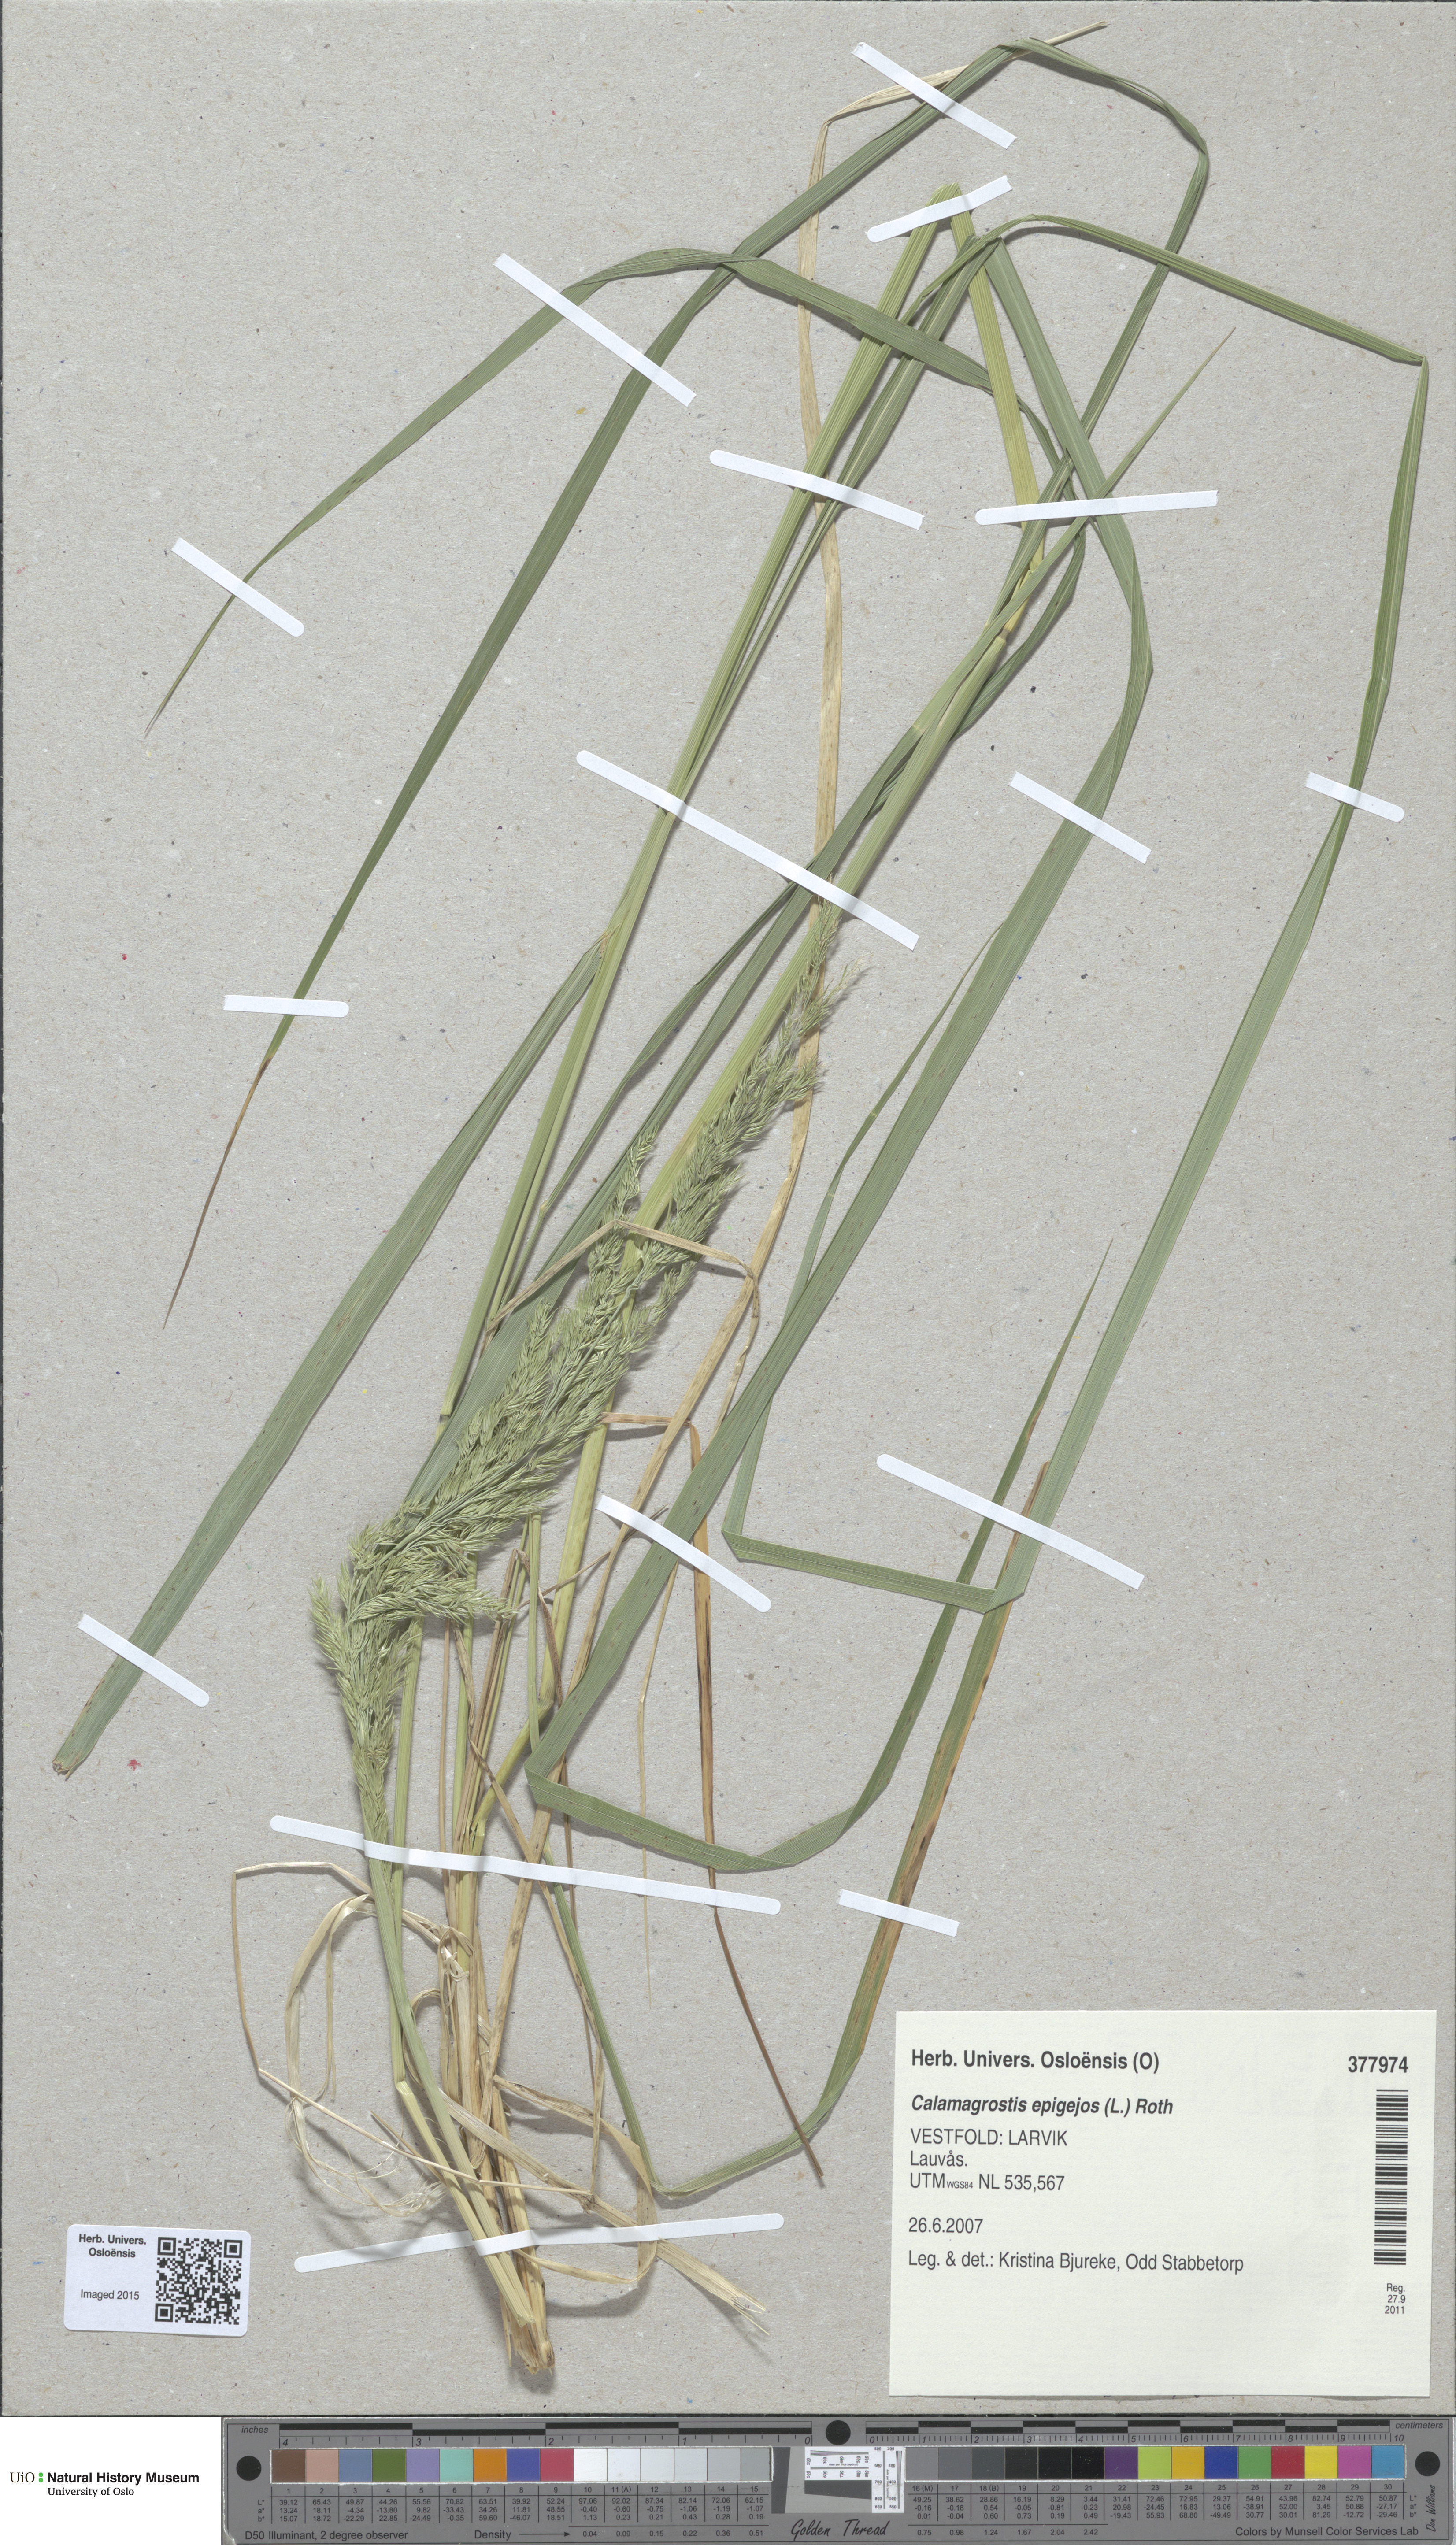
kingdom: Plantae
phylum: Tracheophyta
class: Liliopsida
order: Poales
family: Poaceae
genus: Calamagrostis
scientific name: Calamagrostis epigejos
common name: Wood small-reed
